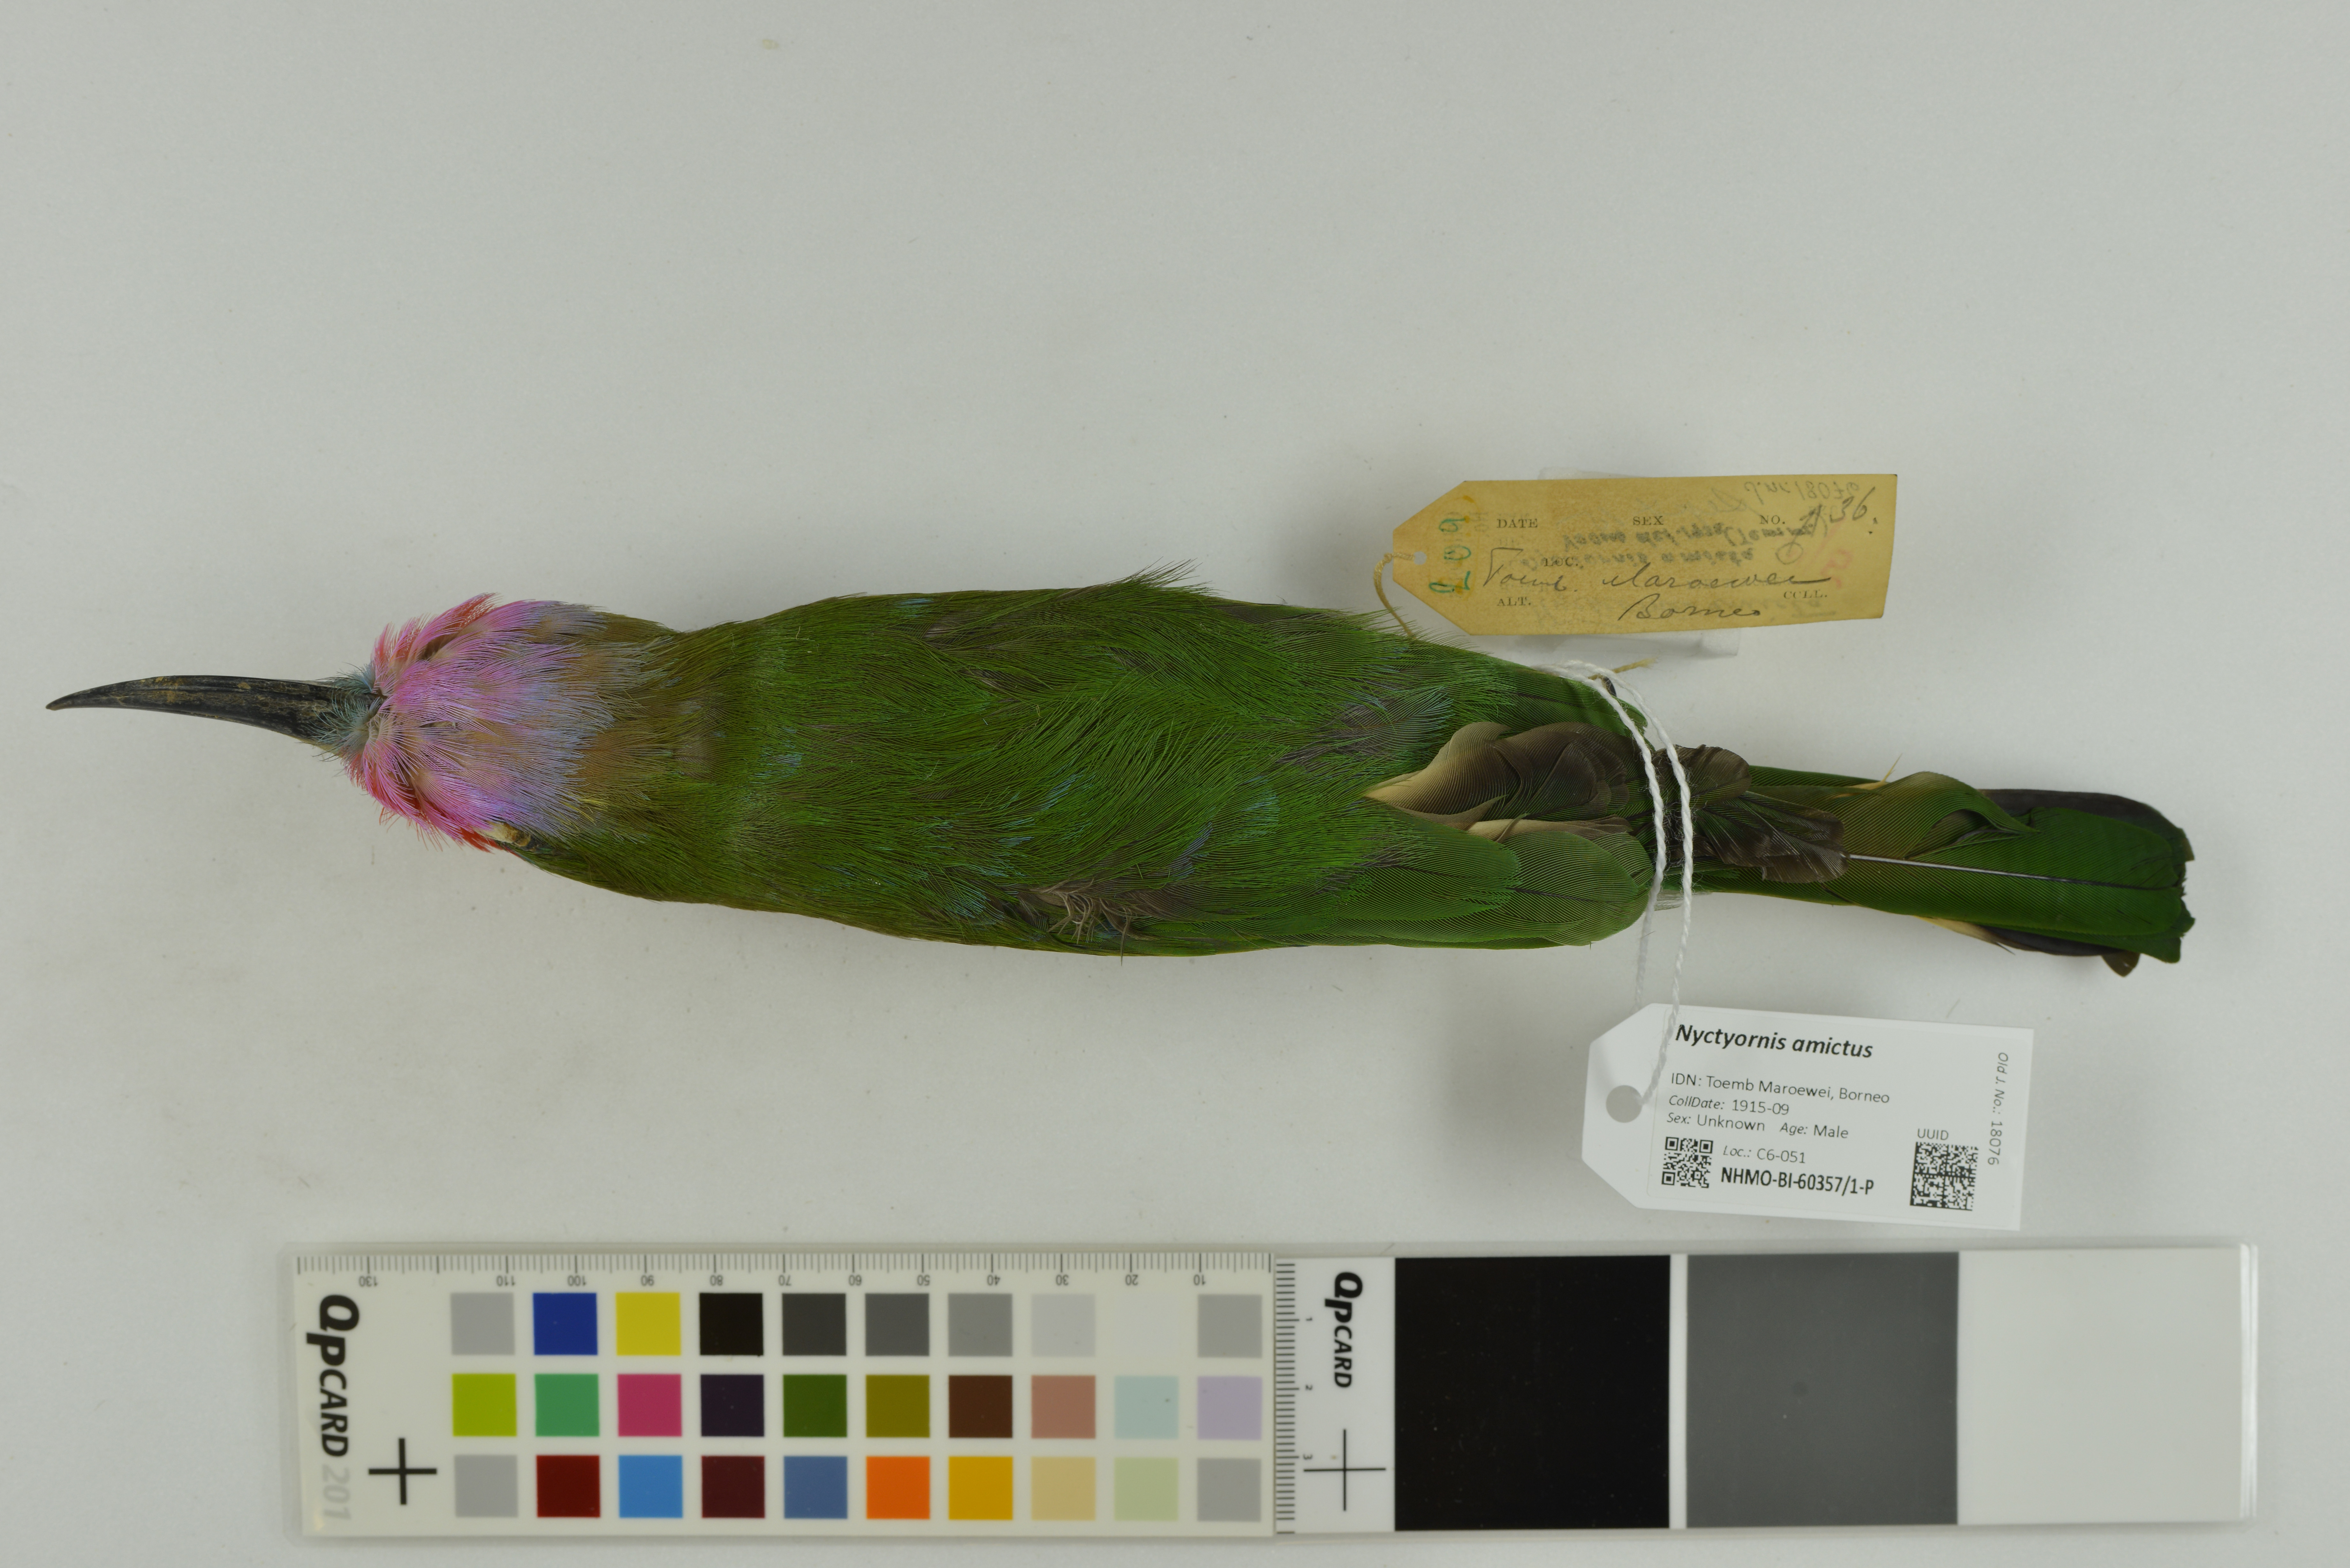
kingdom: Animalia
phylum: Chordata
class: Aves
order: Coraciiformes
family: Meropidae
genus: Nyctyornis
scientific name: Nyctyornis amictus
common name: Red-bearded bee-eater
